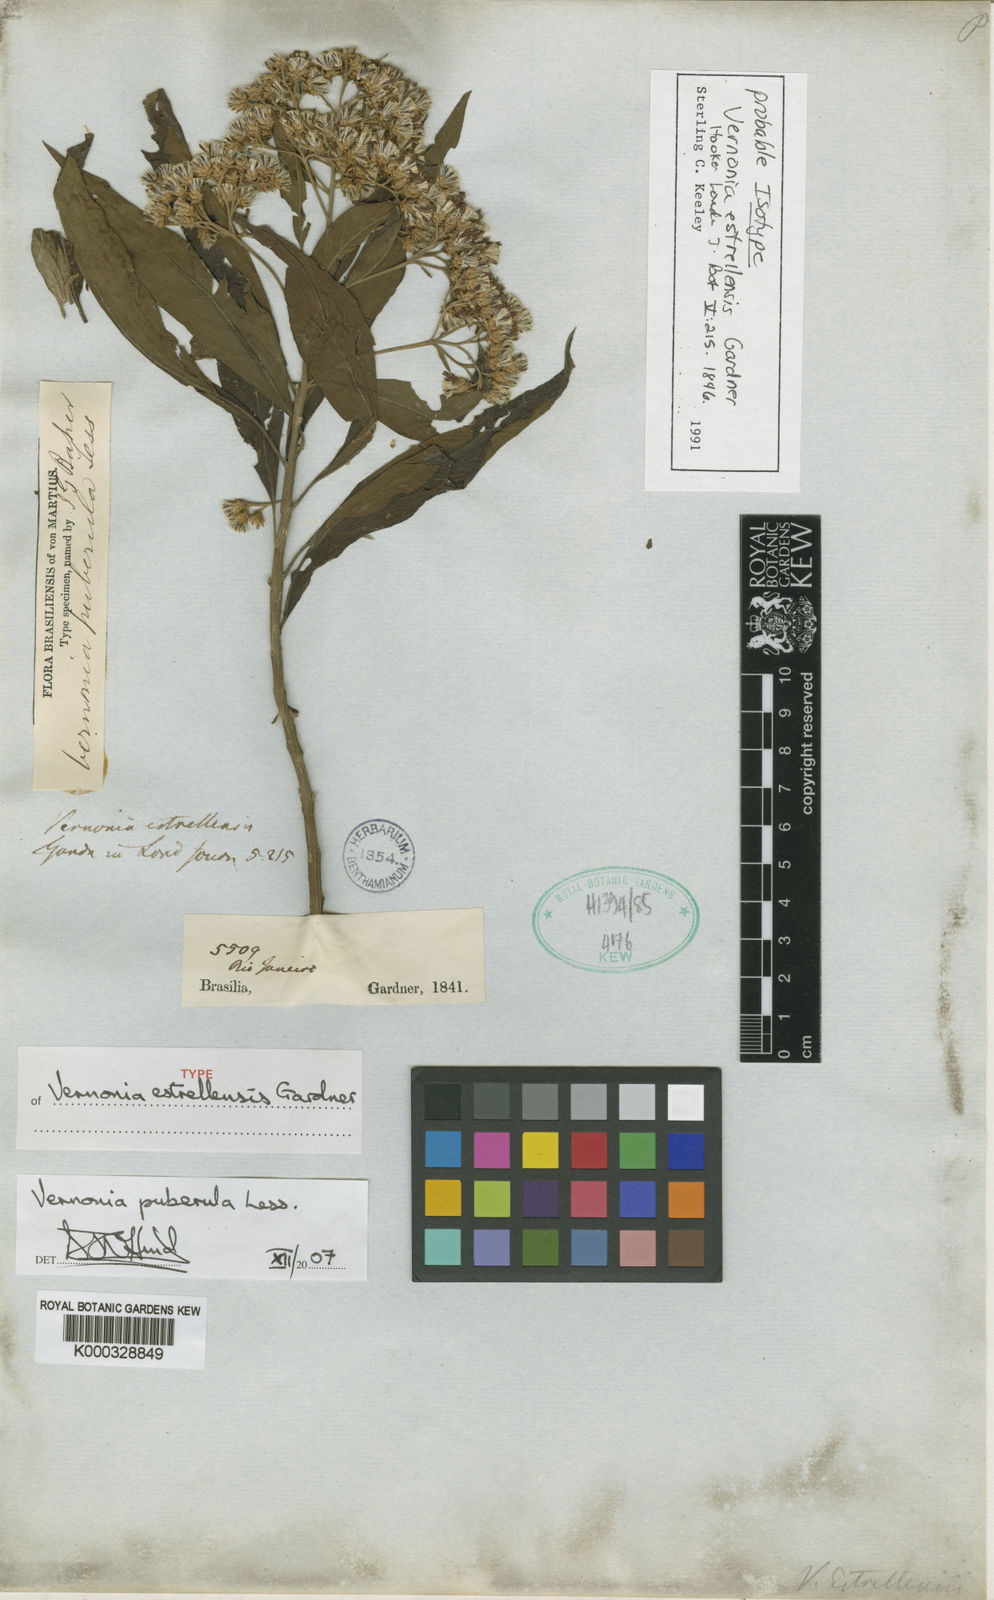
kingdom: Plantae
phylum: Tracheophyta
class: Magnoliopsida
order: Asterales
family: Asteraceae
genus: Vernonanthura
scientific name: Vernonanthura puberula
